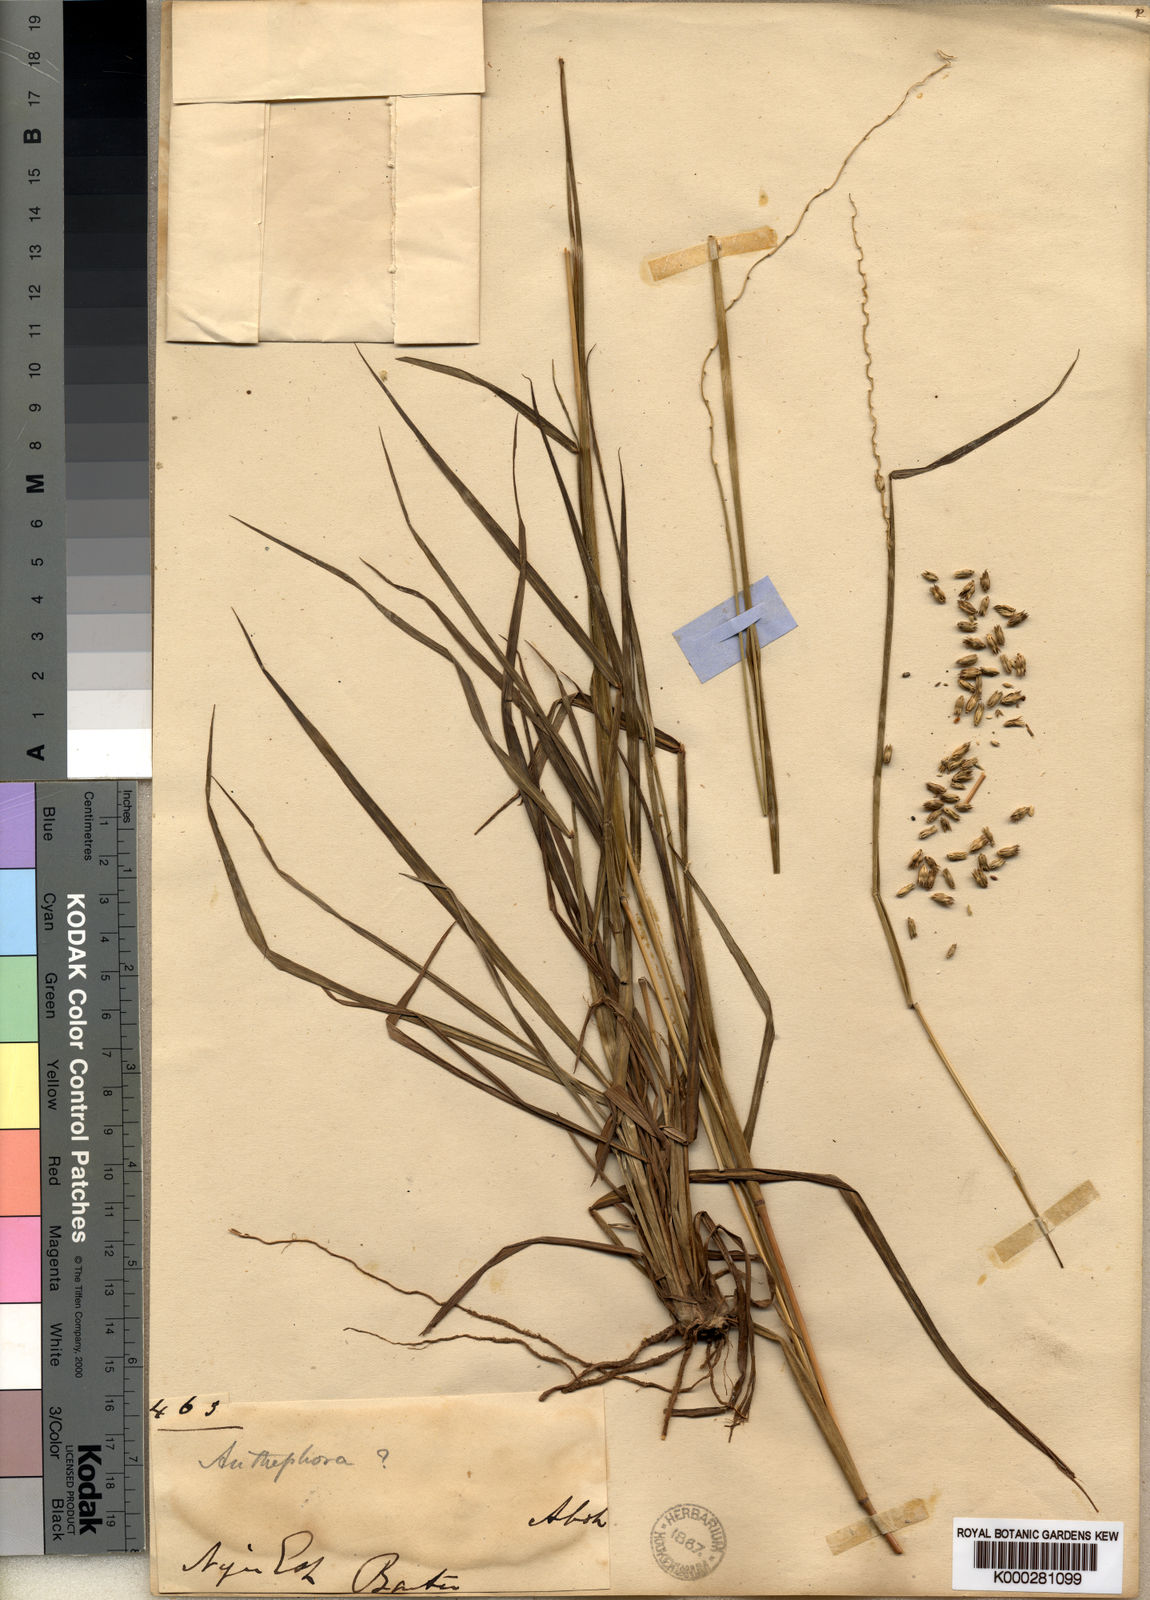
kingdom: Plantae
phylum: Tracheophyta
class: Liliopsida
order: Poales
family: Poaceae
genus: Anthephora
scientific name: Anthephora ampullacea
